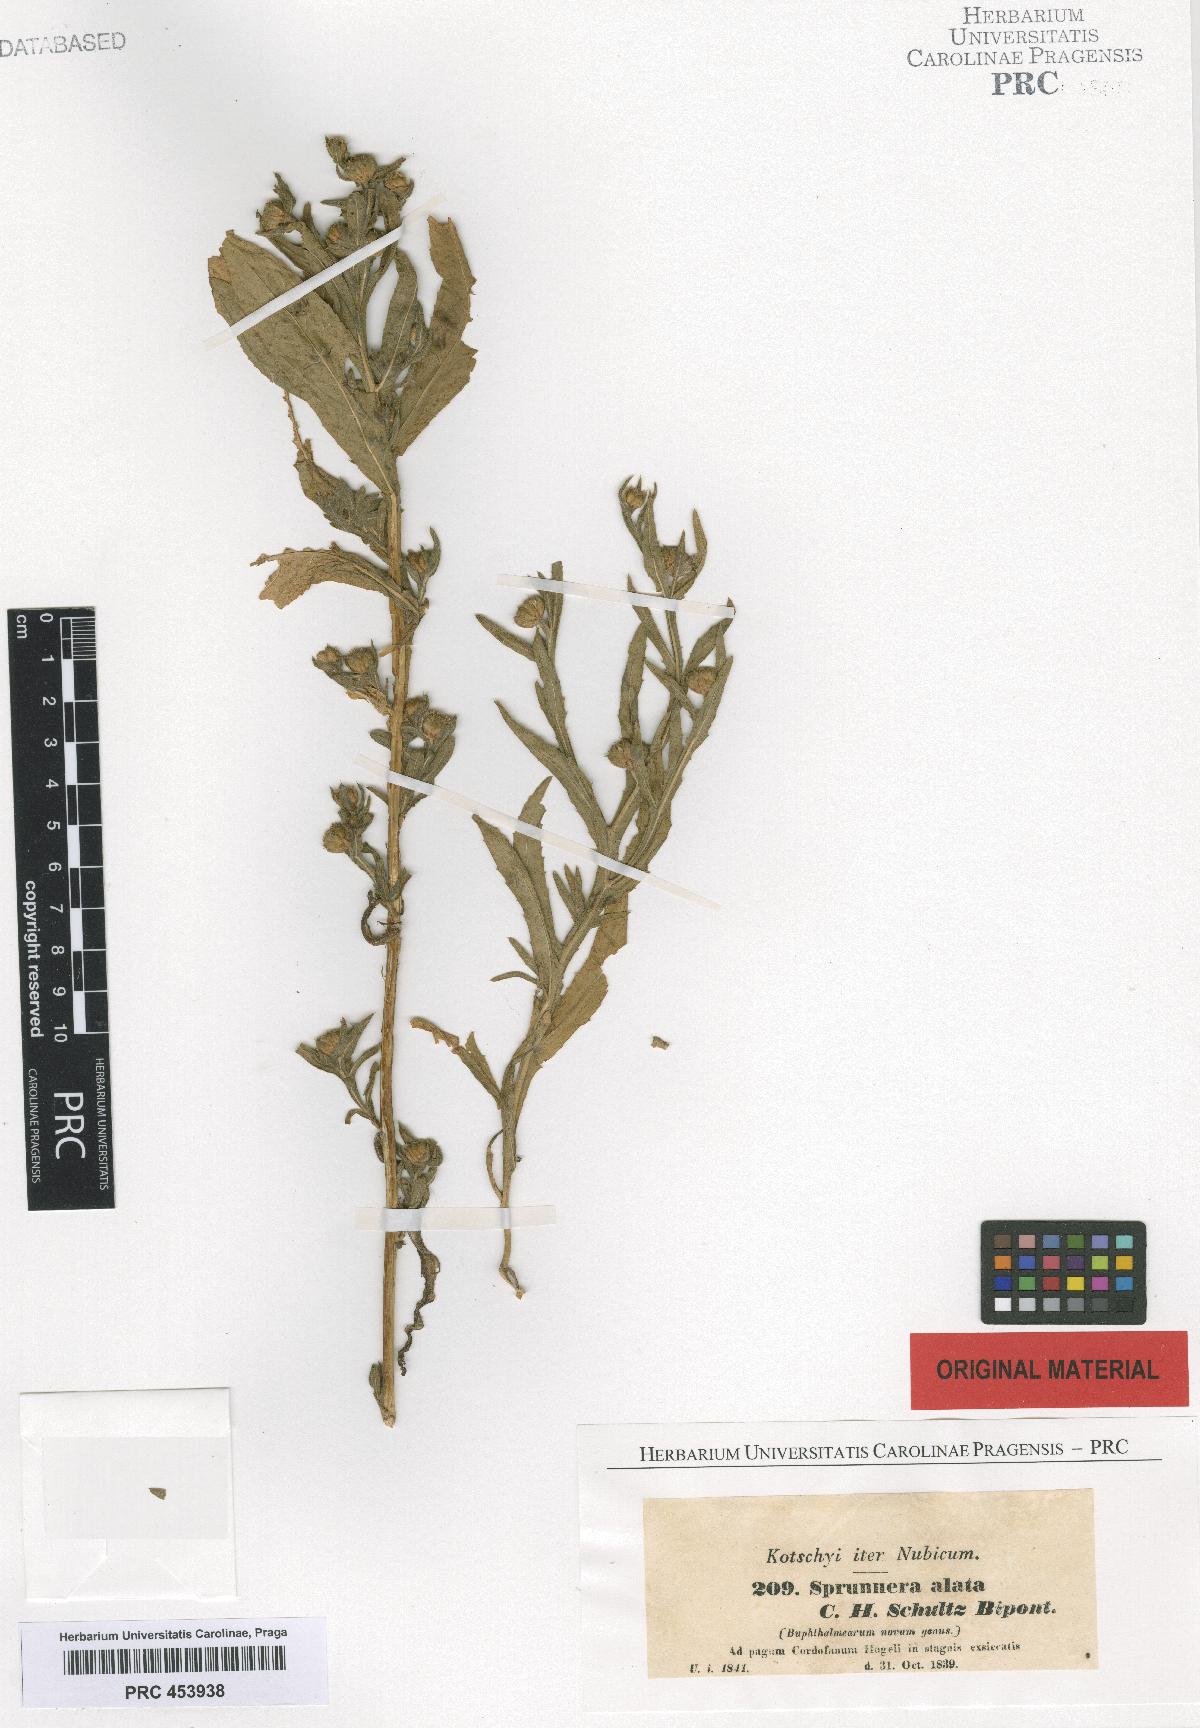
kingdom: Plantae
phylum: Tracheophyta
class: Magnoliopsida
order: Asterales
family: Asteraceae
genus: Sprunnera
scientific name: Sprunnera
